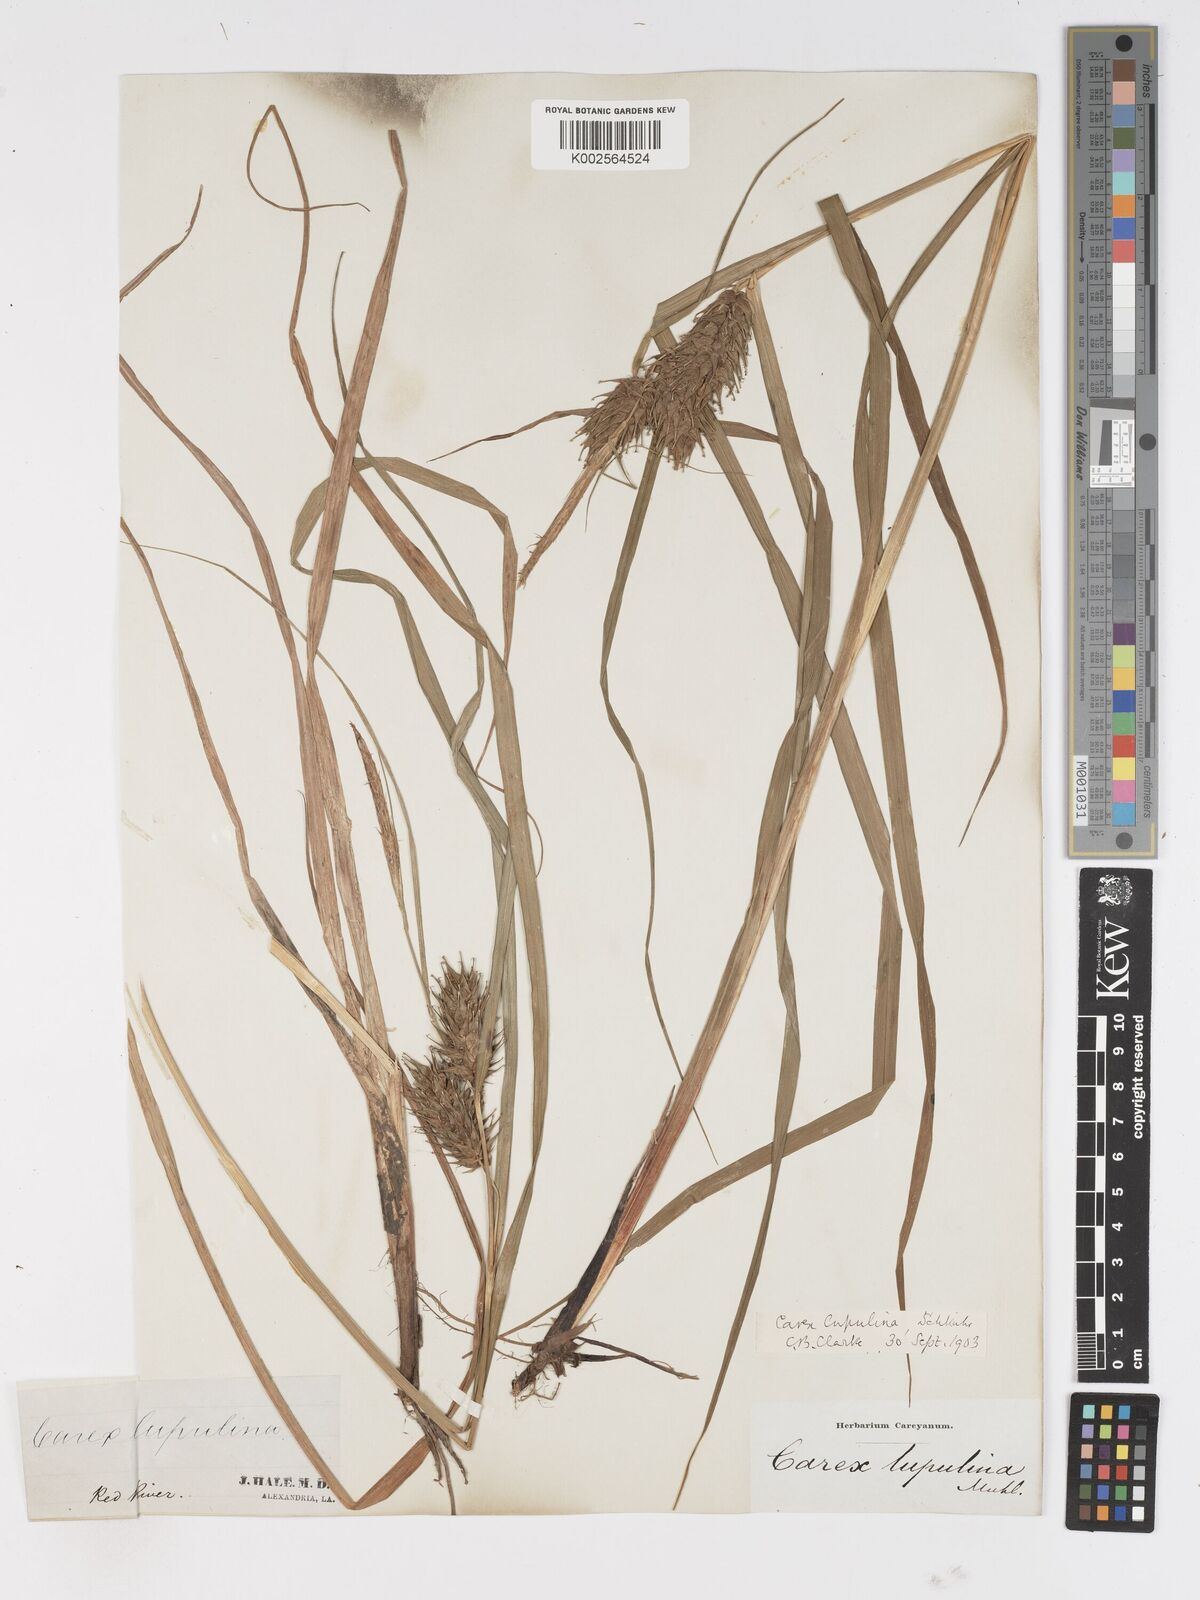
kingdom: Plantae
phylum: Tracheophyta
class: Liliopsida
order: Poales
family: Cyperaceae
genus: Carex
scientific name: Carex lupulina
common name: Hop sedge
